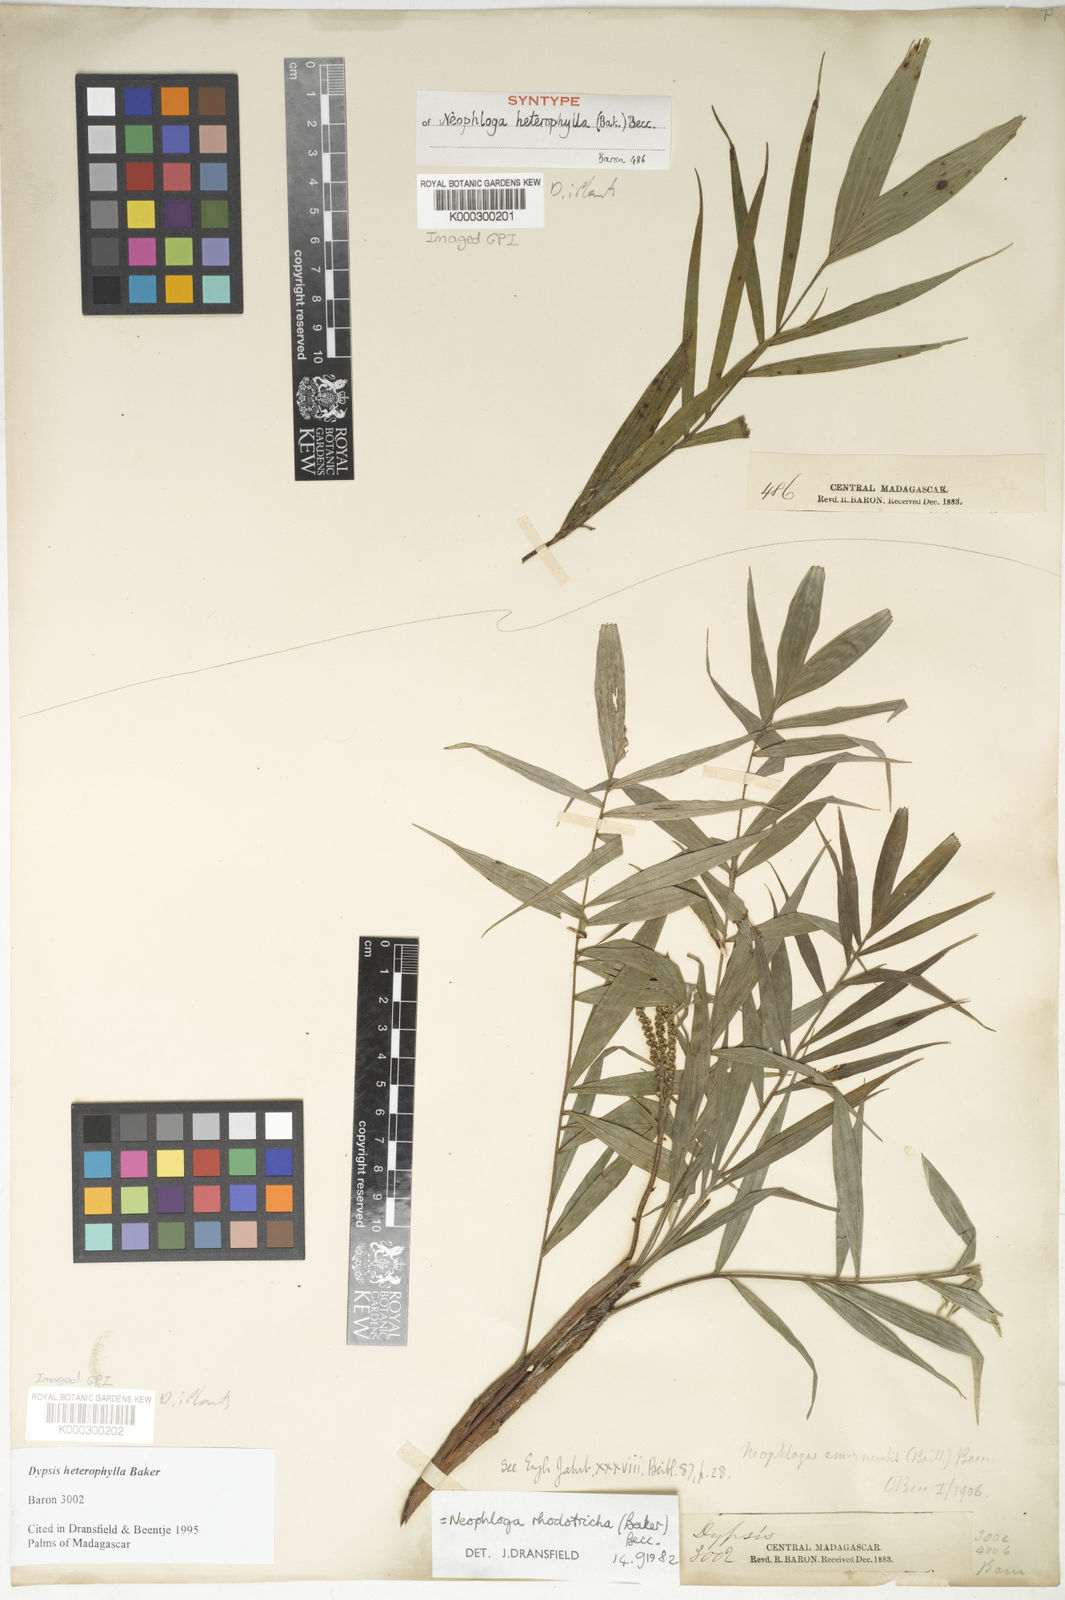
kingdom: Plantae
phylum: Tracheophyta
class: Liliopsida
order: Arecales
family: Arecaceae
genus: Dypsis
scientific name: Dypsis heterophylla
